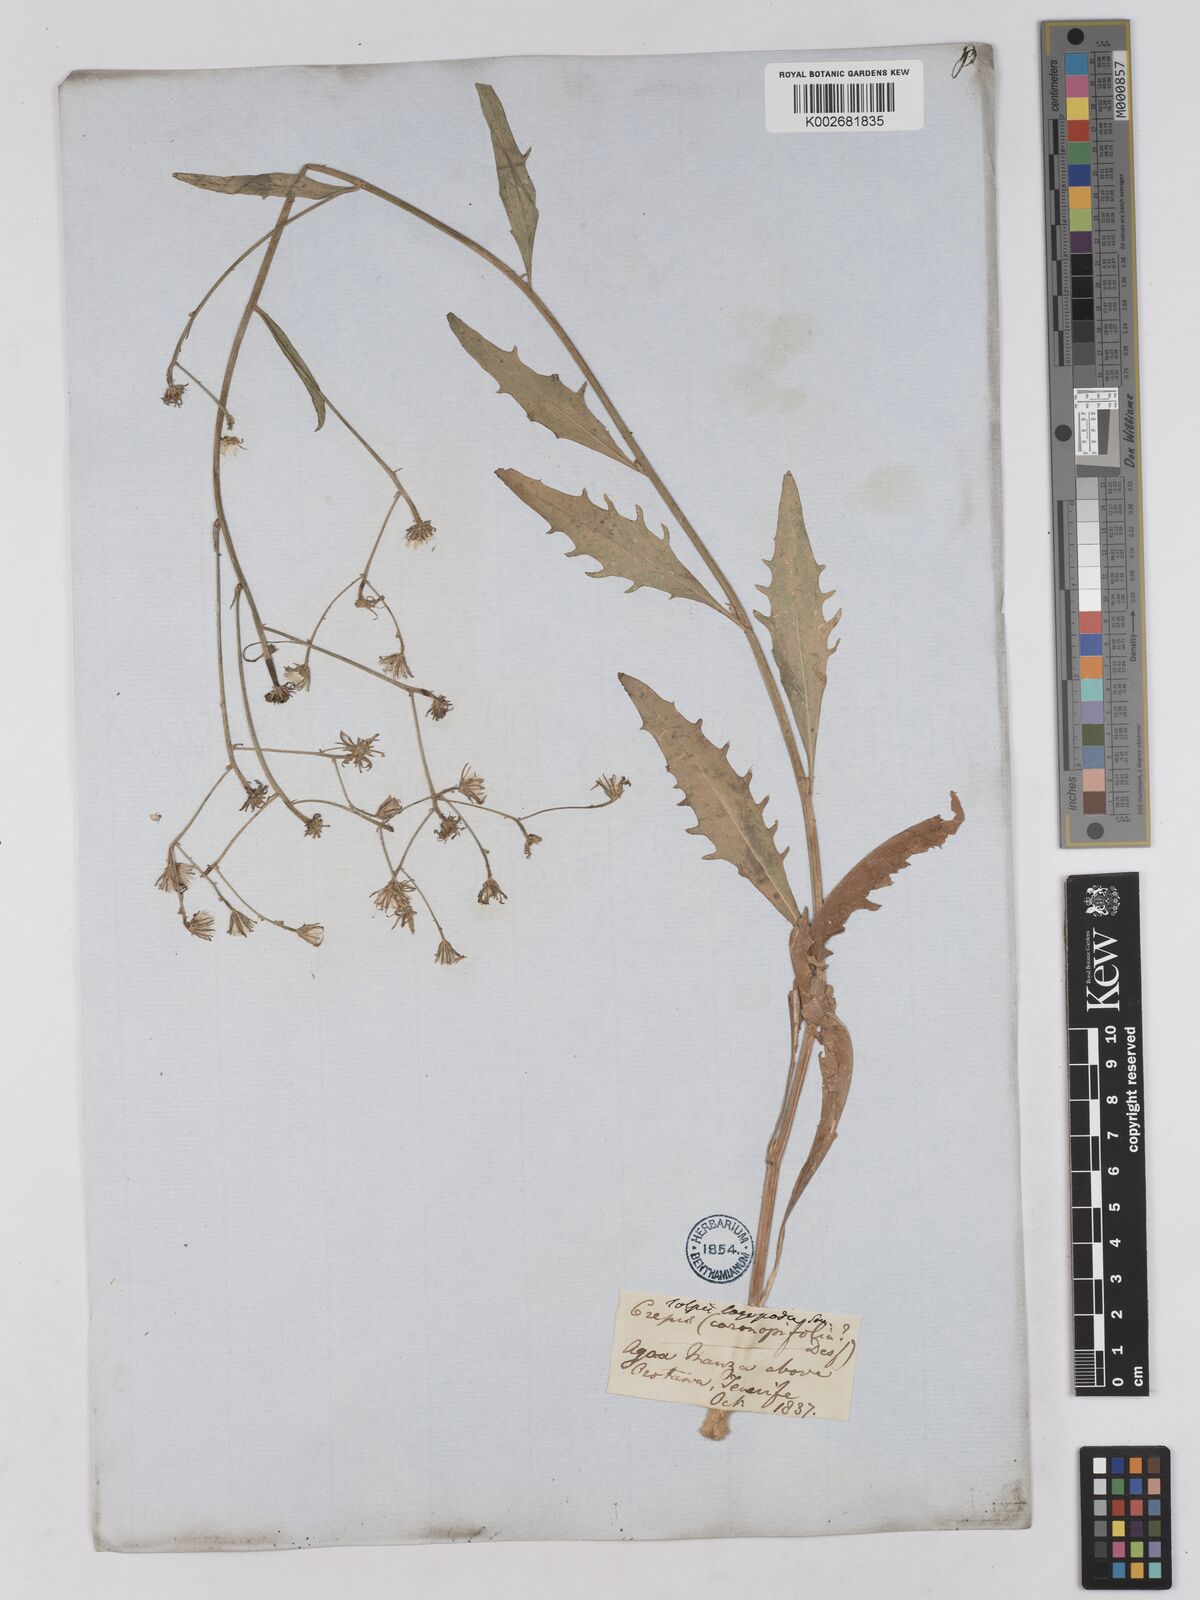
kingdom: Plantae
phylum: Tracheophyta
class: Magnoliopsida
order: Asterales
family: Asteraceae
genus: Tolpis
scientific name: Tolpis lagopoda
